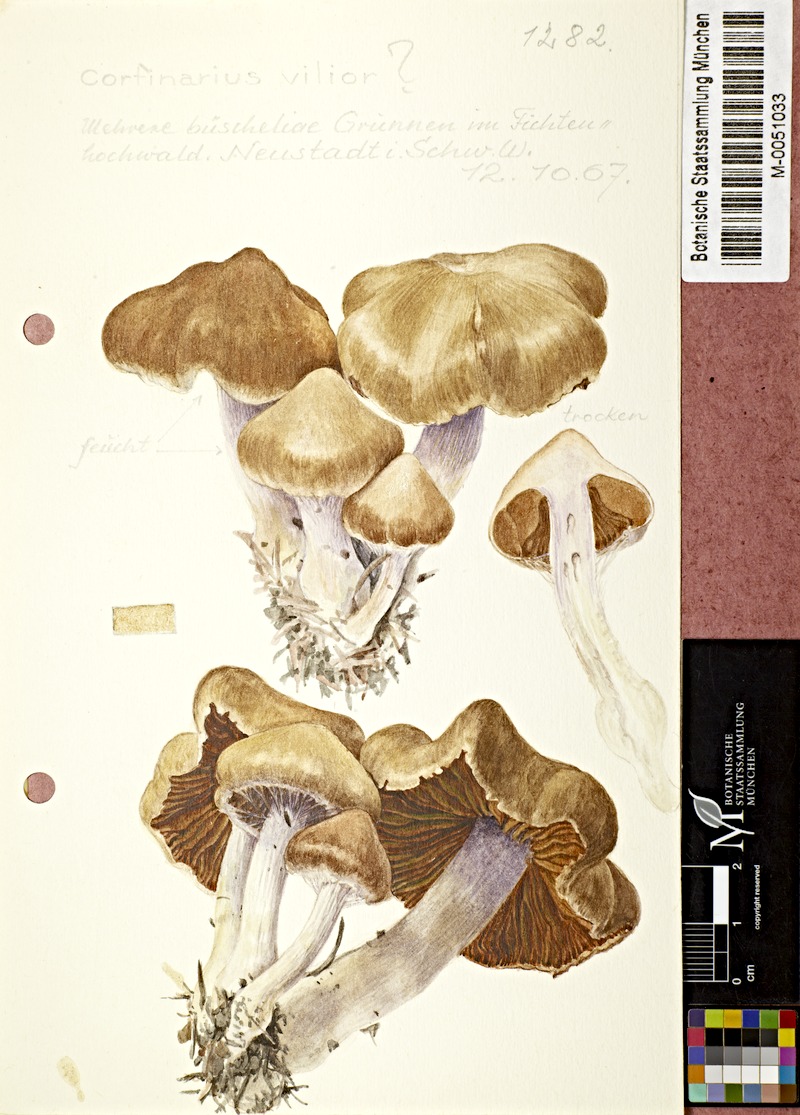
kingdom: Fungi
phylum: Basidiomycota
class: Agaricomycetes
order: Agaricales
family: Cortinariaceae
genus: Cortinarius
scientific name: Cortinarius imbutus
